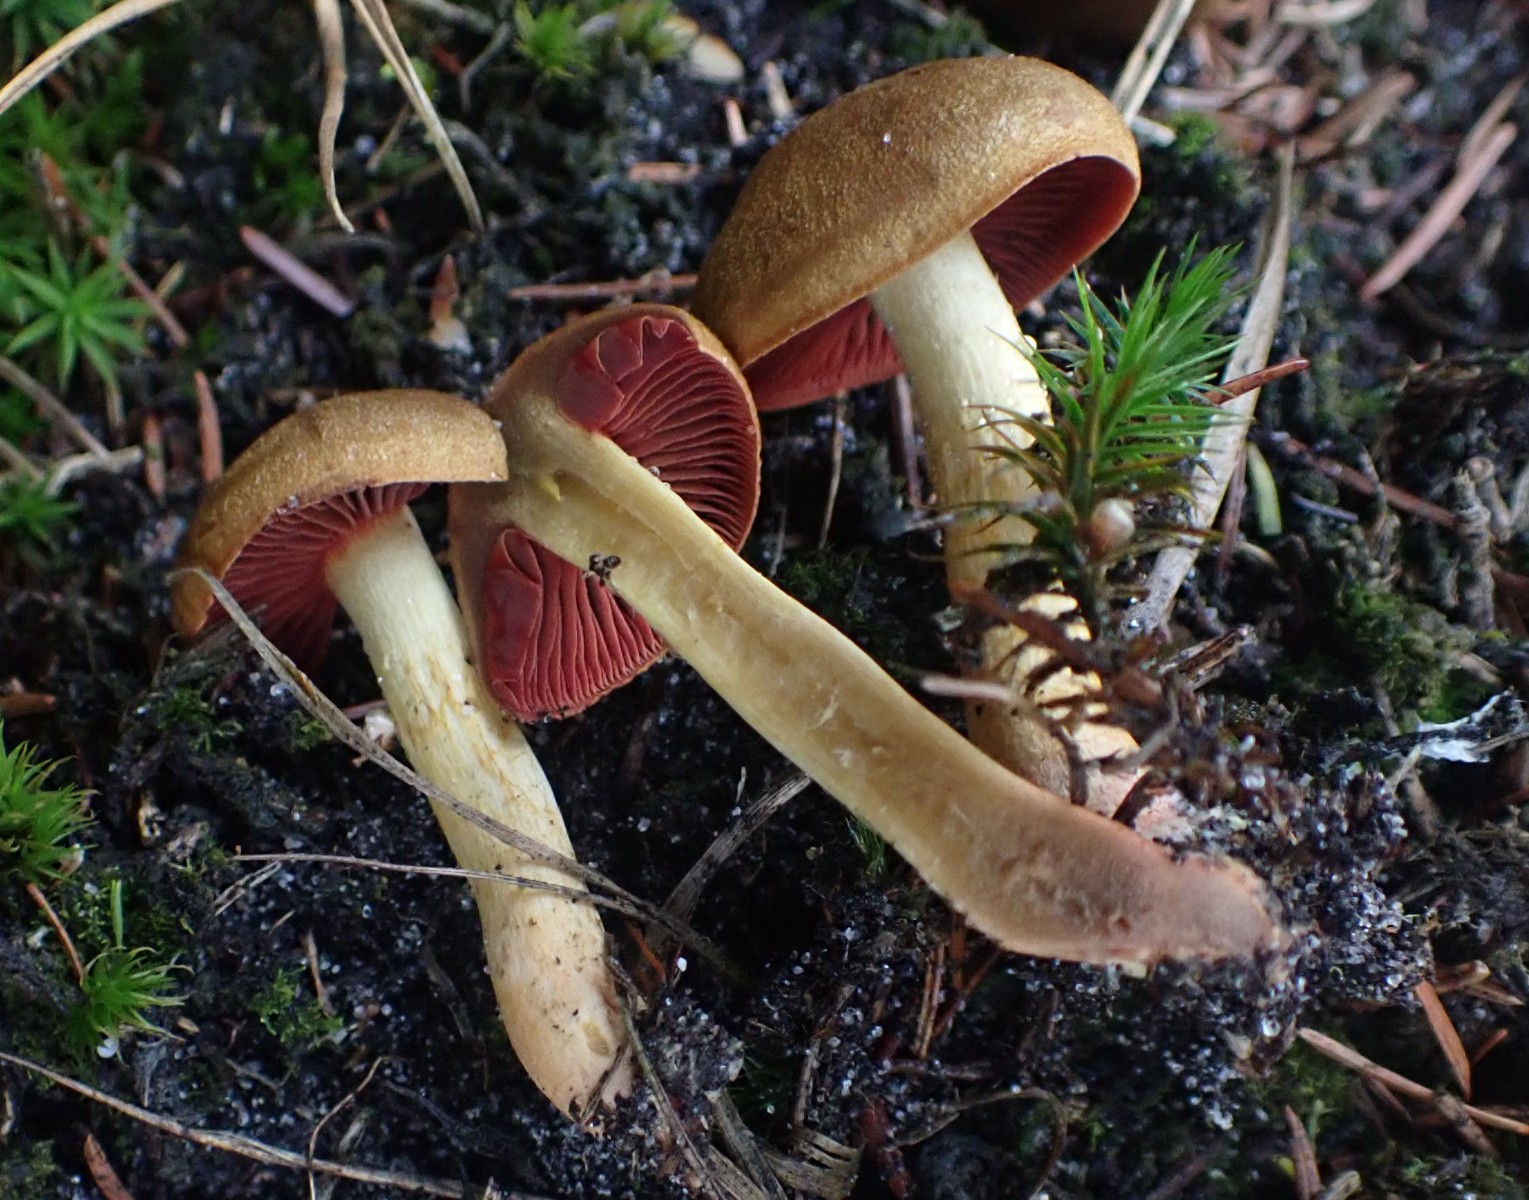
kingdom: Fungi
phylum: Basidiomycota
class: Agaricomycetes
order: Agaricales
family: Cortinariaceae
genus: Cortinarius
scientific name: Cortinarius
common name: cinnoberbladet slørhat
